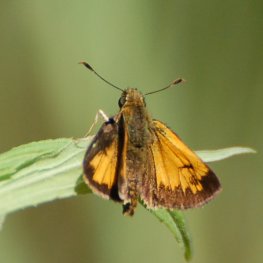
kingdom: Animalia
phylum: Arthropoda
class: Insecta
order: Lepidoptera
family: Hesperiidae
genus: Lon
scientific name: Lon hobomok
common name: Hobomok Skipper
